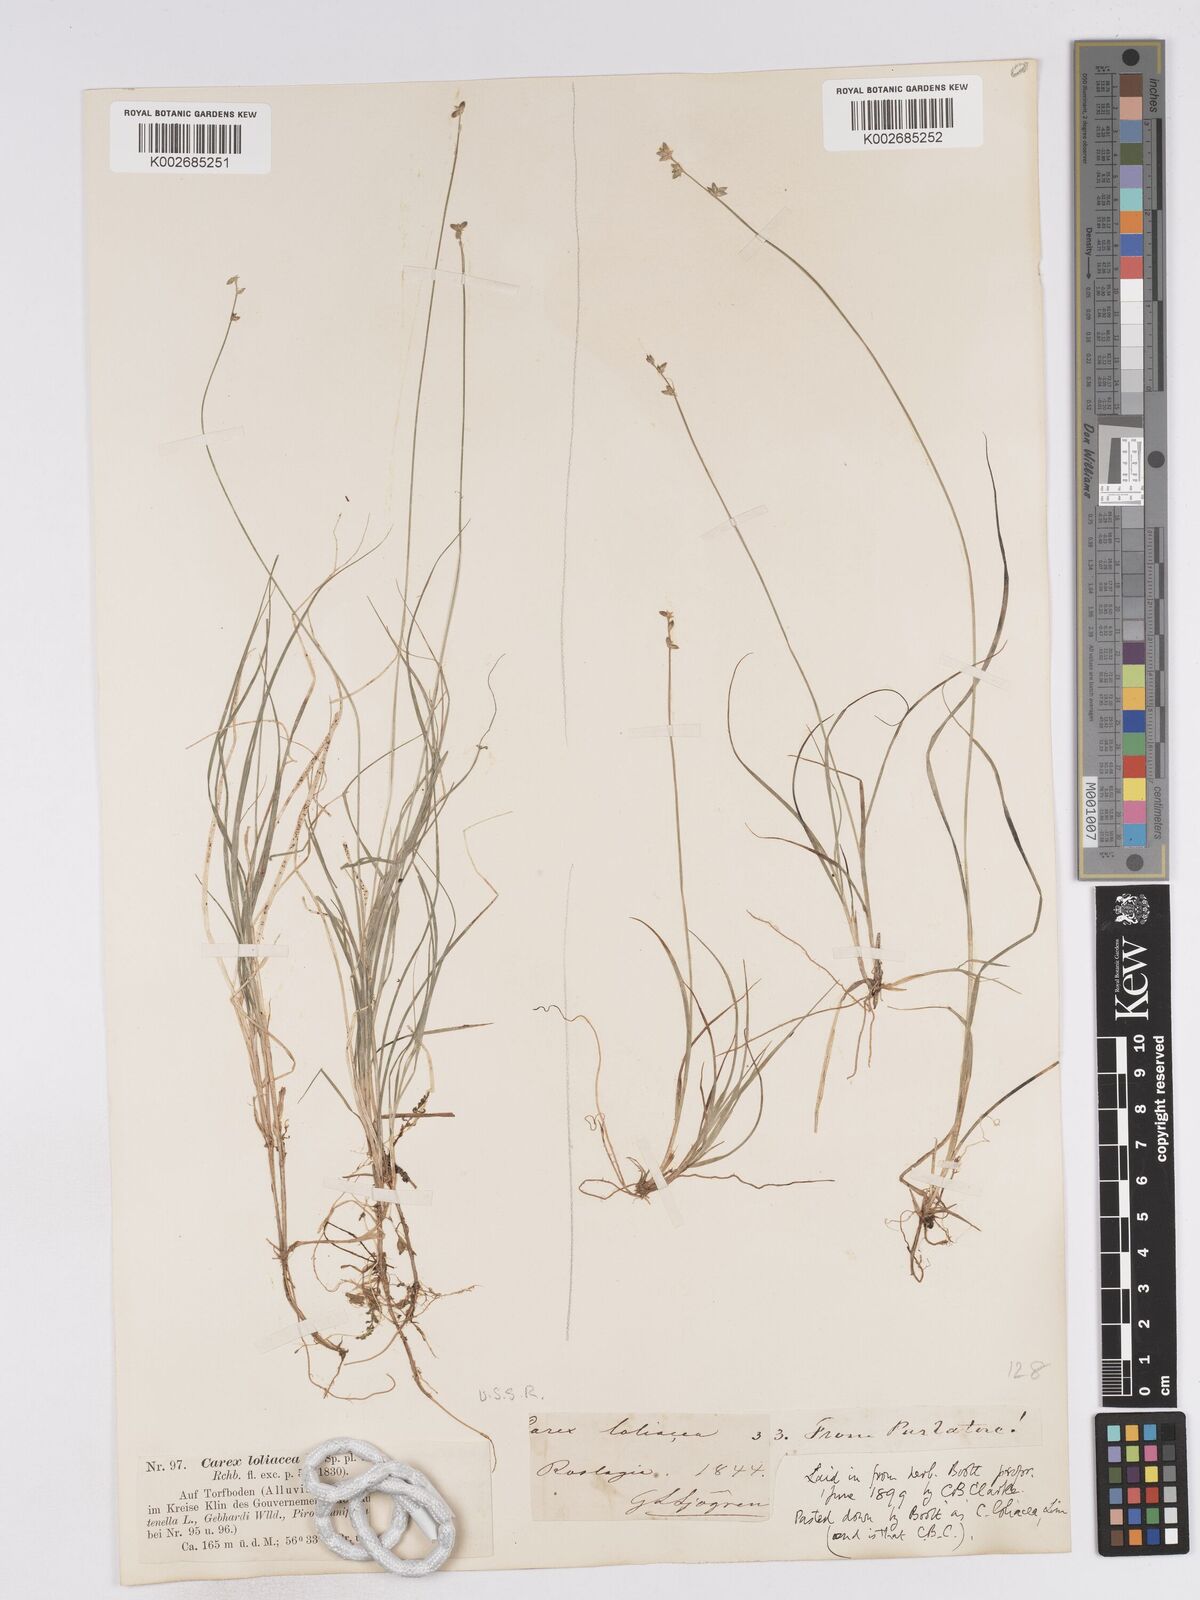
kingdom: Plantae
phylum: Tracheophyta
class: Liliopsida
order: Poales
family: Cyperaceae
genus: Carex
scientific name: Carex loliacea
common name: Ryegrass sedge
